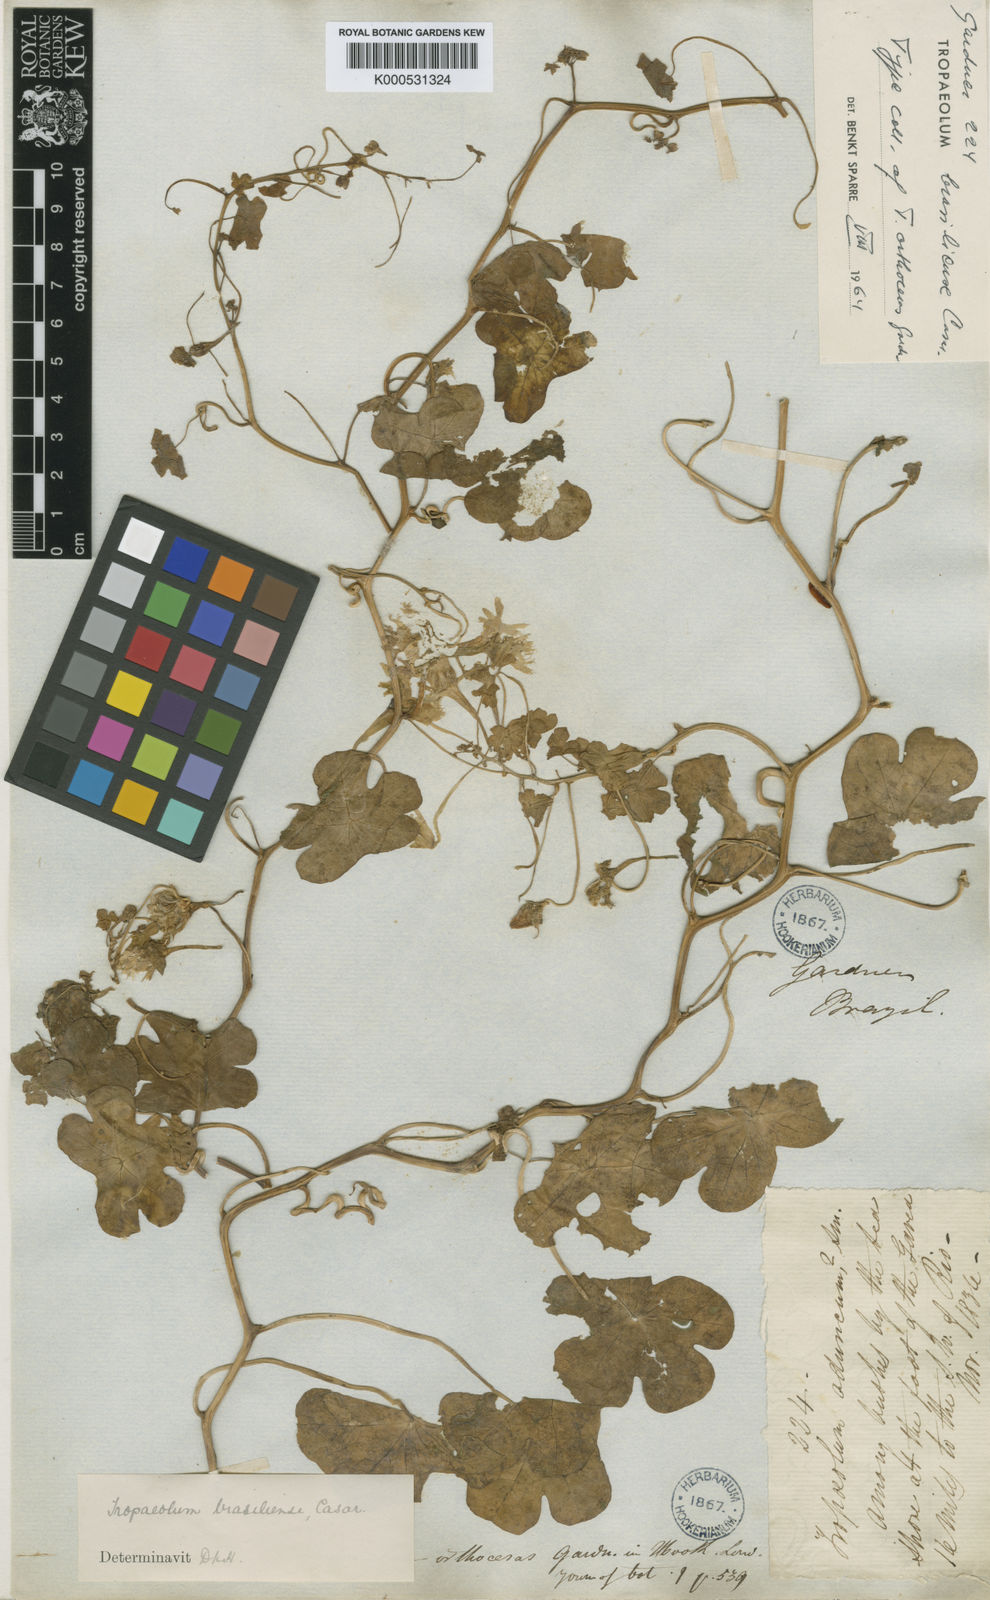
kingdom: Plantae
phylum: Tracheophyta
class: Magnoliopsida
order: Brassicales
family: Tropaeolaceae
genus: Tropaeolum
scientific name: Tropaeolum brasiliense
